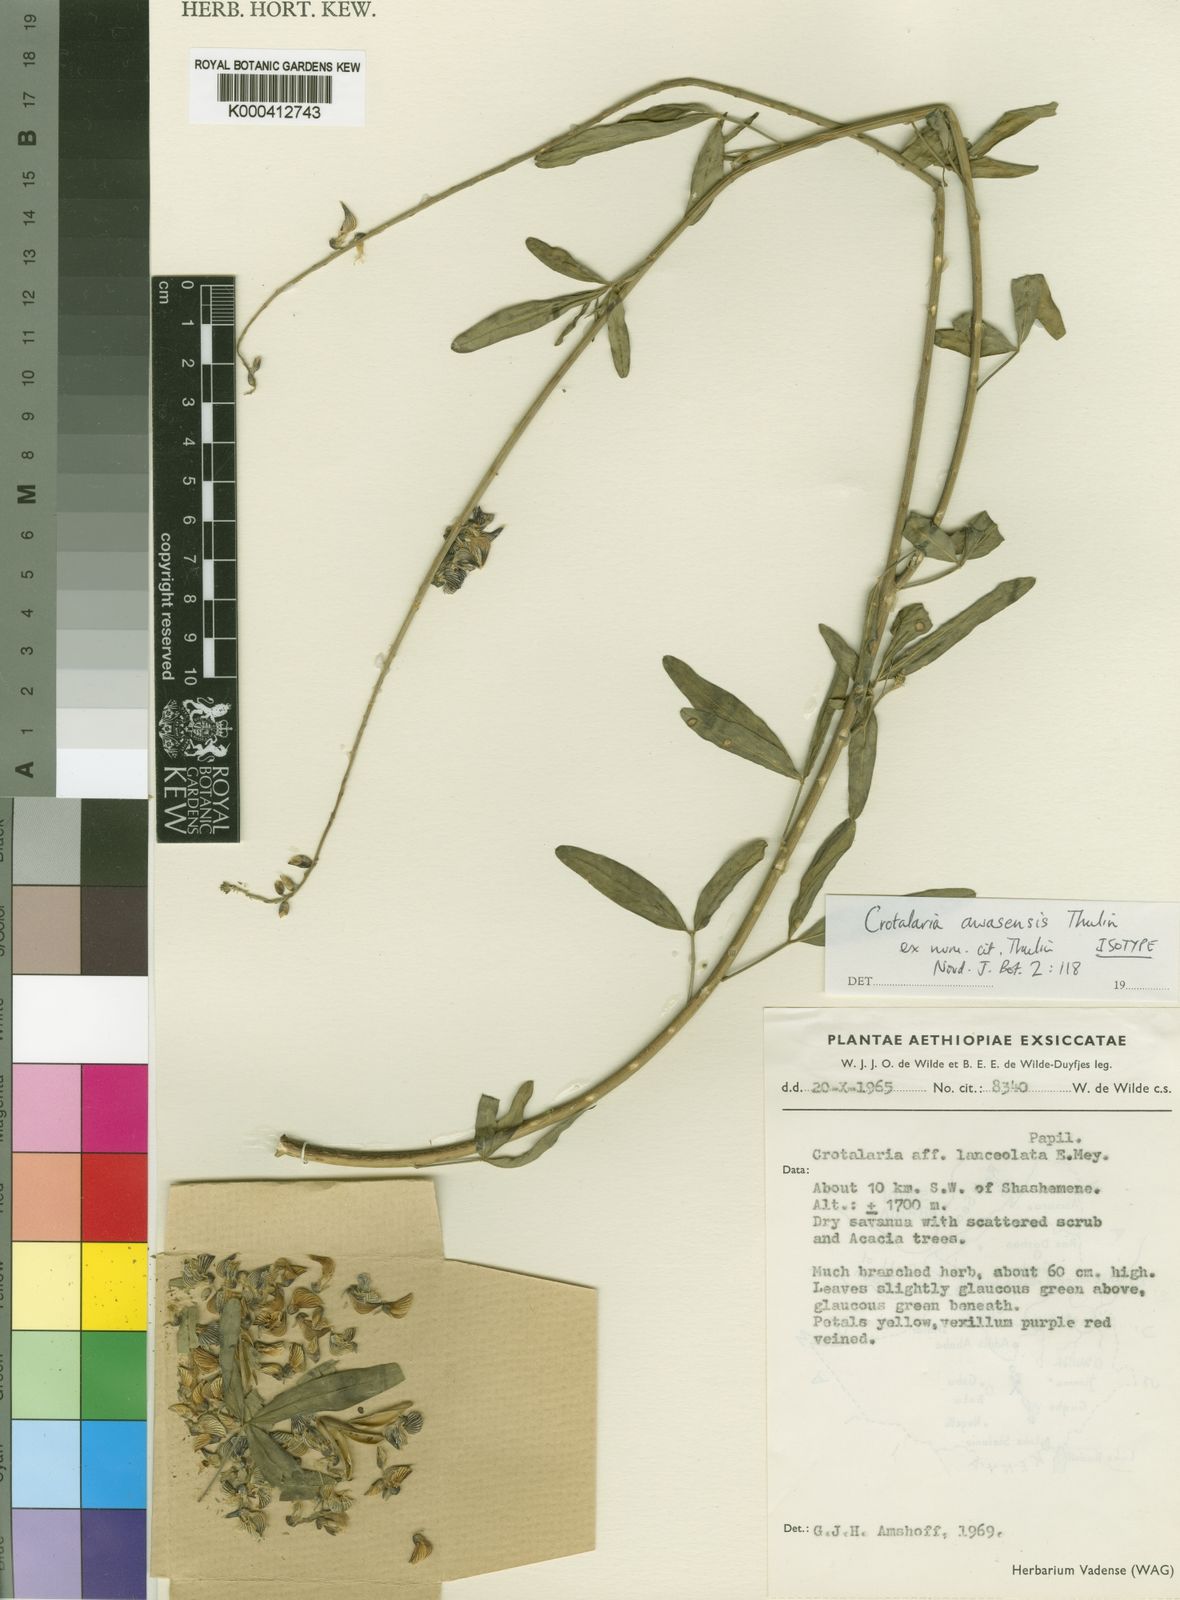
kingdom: Plantae
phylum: Tracheophyta
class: Magnoliopsida
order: Fabales
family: Fabaceae
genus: Crotalaria
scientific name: Crotalaria awasensis
